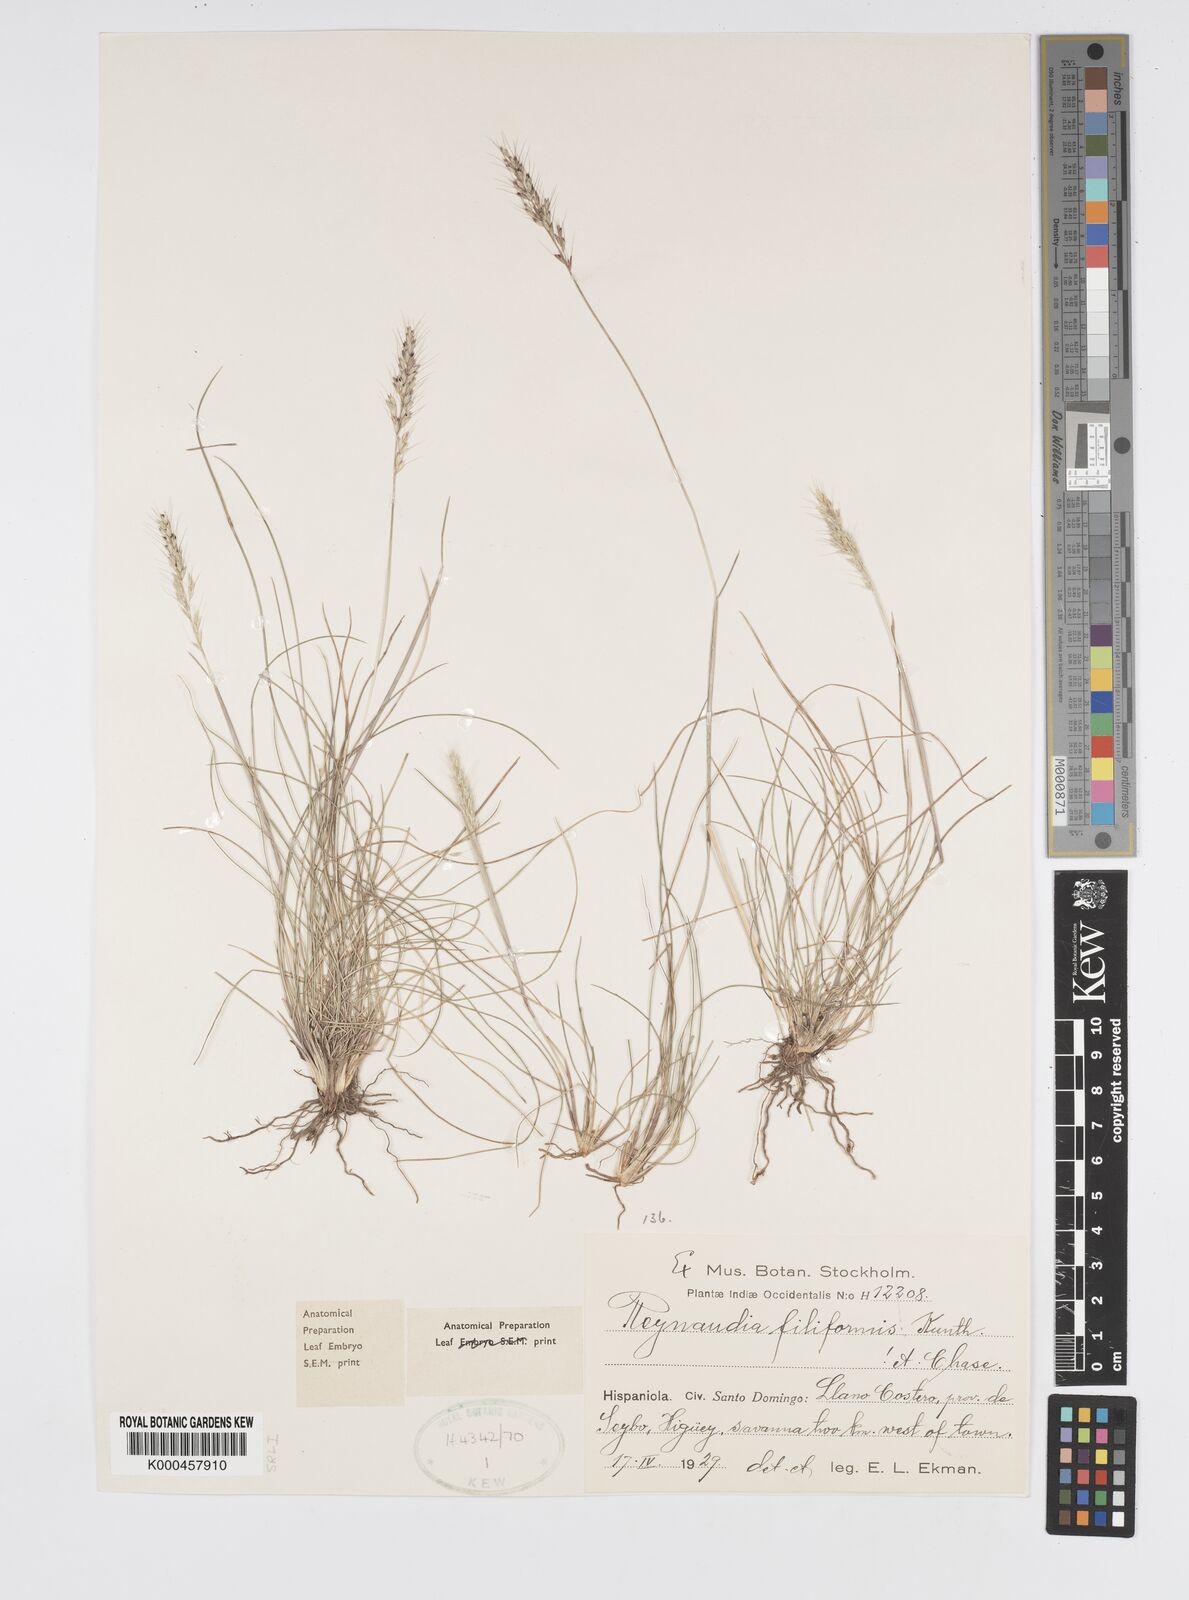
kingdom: Plantae
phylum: Tracheophyta
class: Liliopsida
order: Poales
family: Poaceae
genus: Reynaudia
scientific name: Reynaudia filiformis
